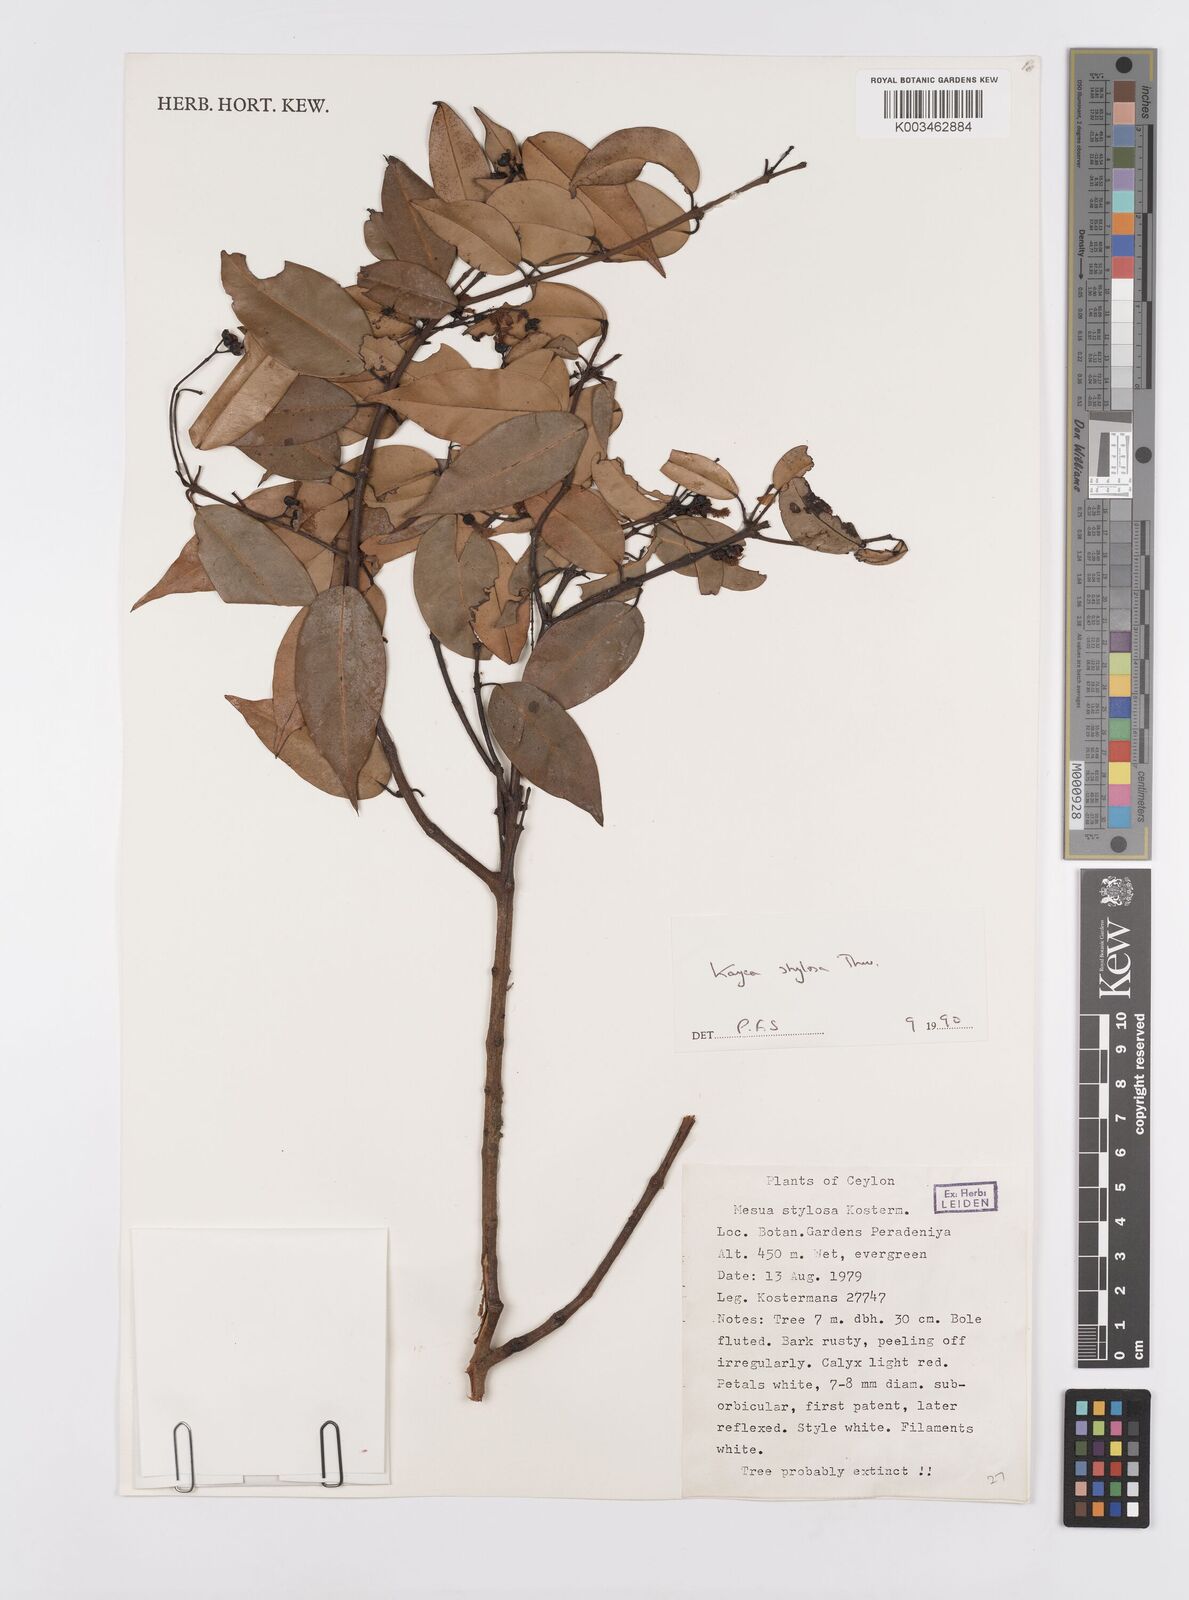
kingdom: Plantae
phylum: Tracheophyta
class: Magnoliopsida
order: Malpighiales
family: Calophyllaceae
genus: Kayea
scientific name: Kayea stylosa
